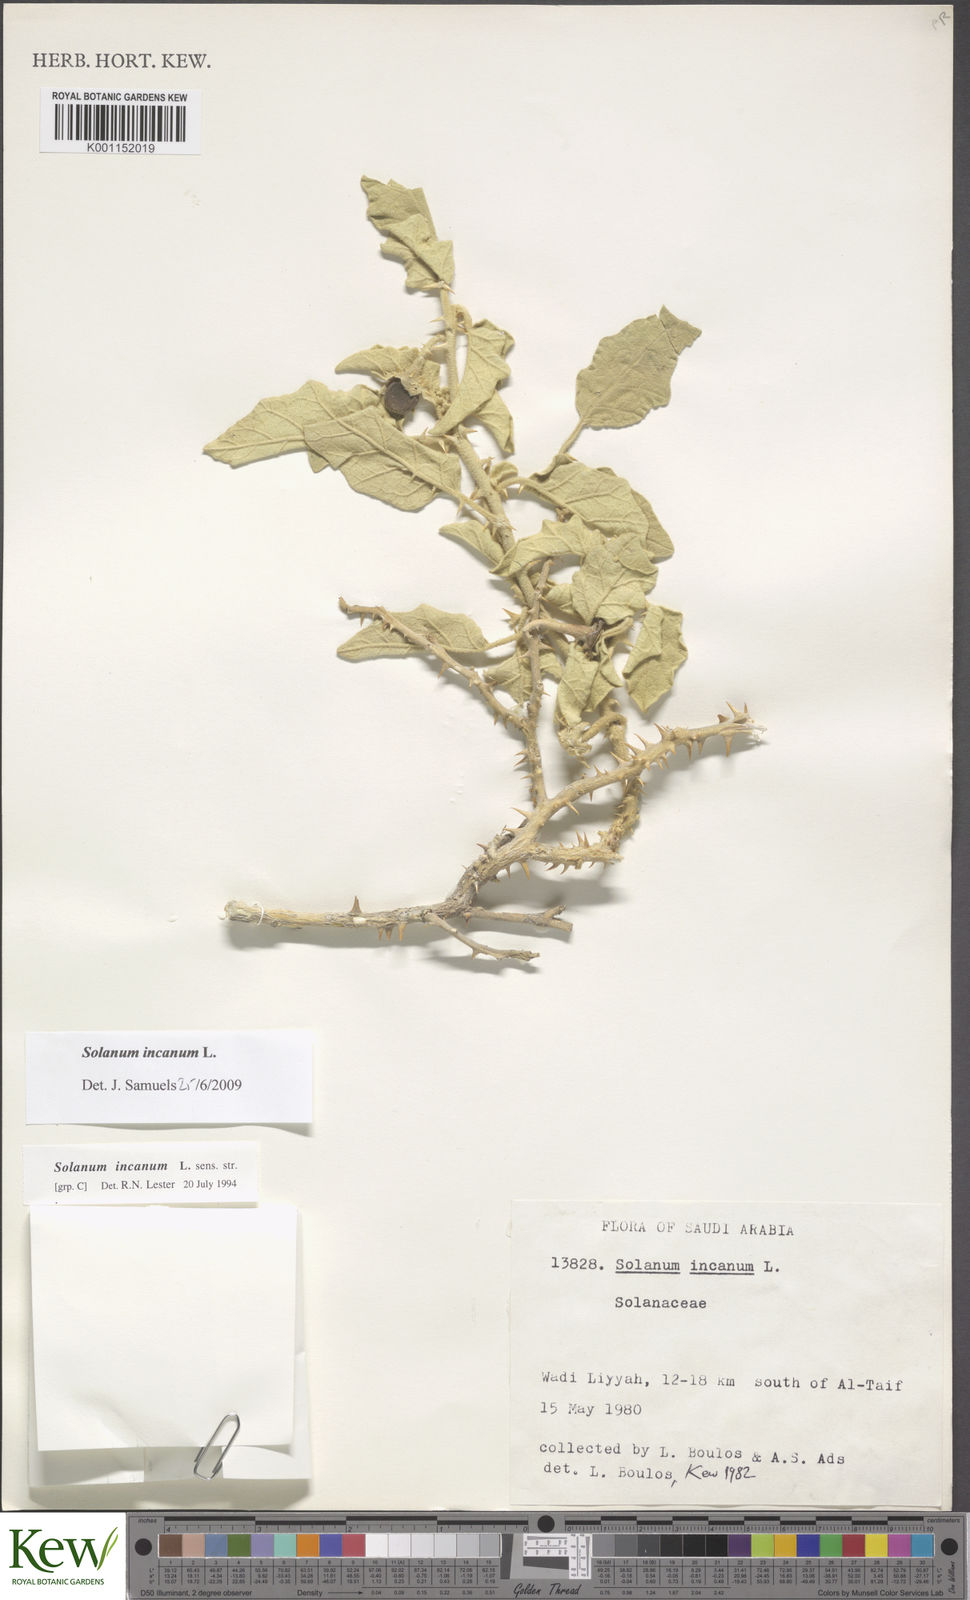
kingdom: Plantae
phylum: Tracheophyta
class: Magnoliopsida
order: Solanales
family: Solanaceae
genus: Solanum
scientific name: Solanum incanum
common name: Bitter apple
